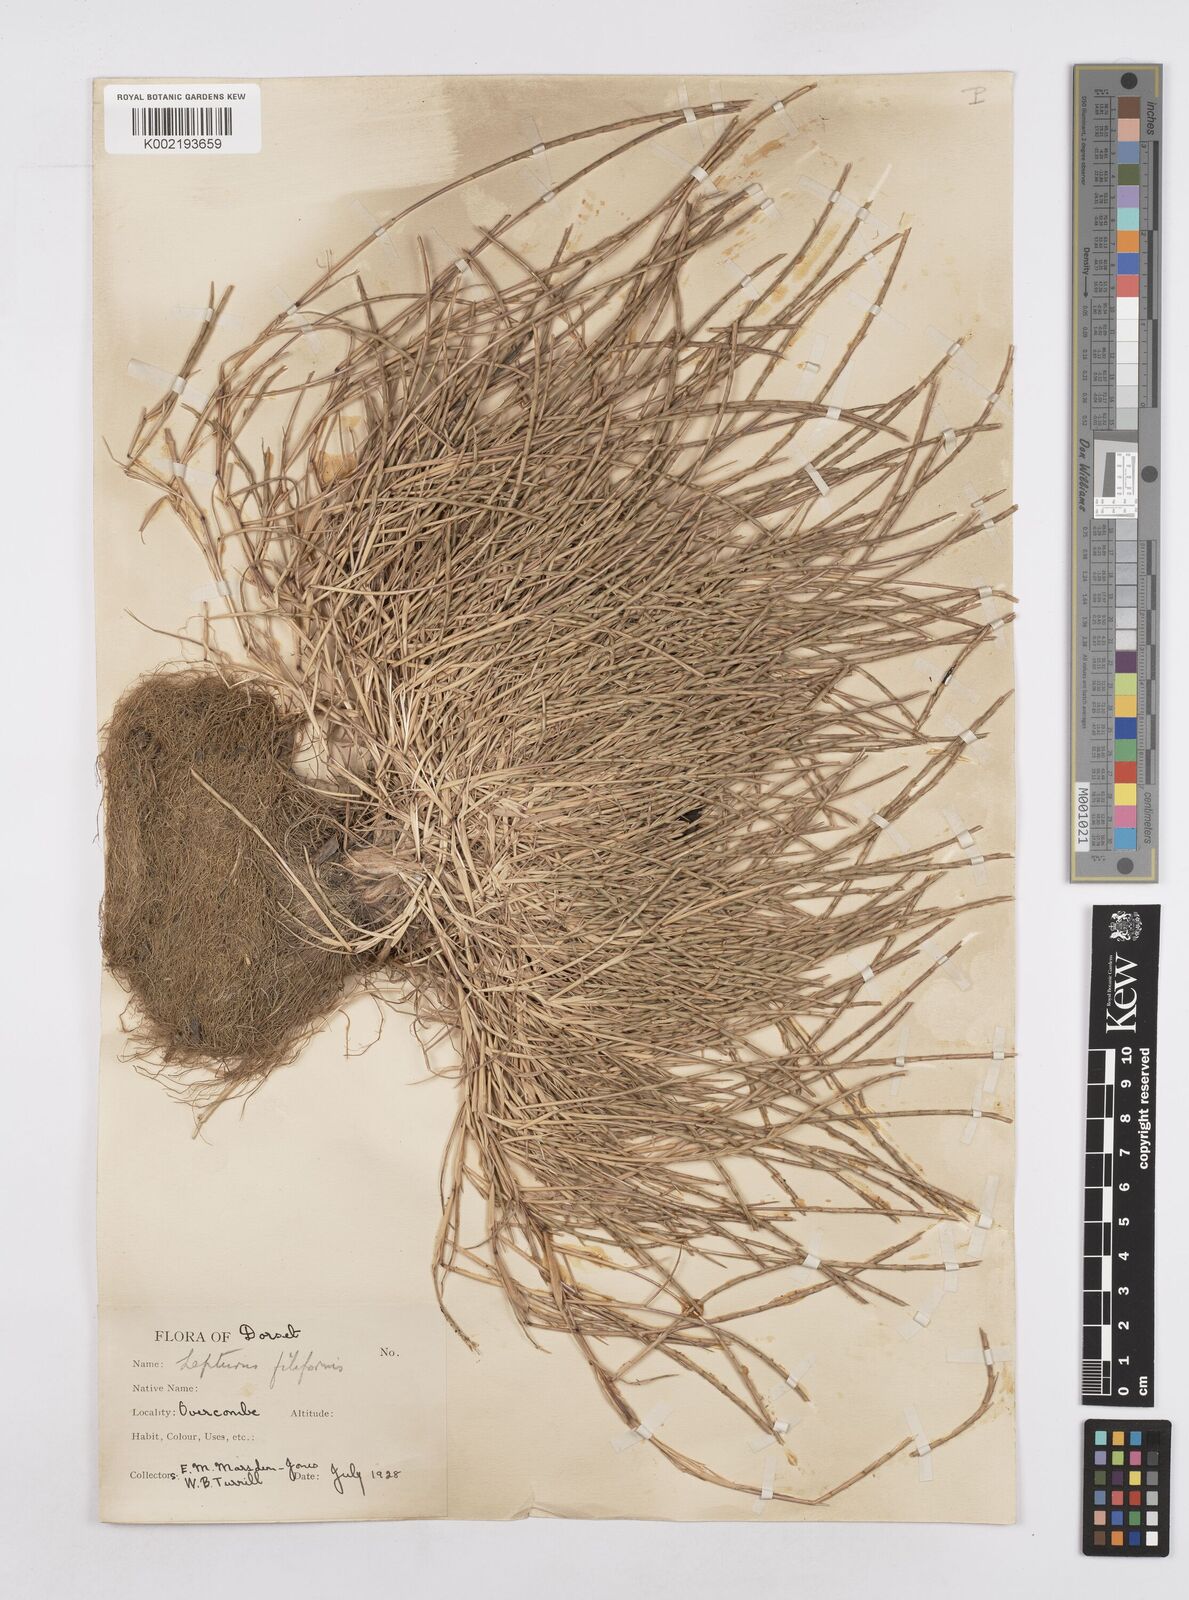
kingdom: Plantae
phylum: Tracheophyta
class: Liliopsida
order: Poales
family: Poaceae
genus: Parapholis
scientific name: Parapholis strigosa
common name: Hard-grass
